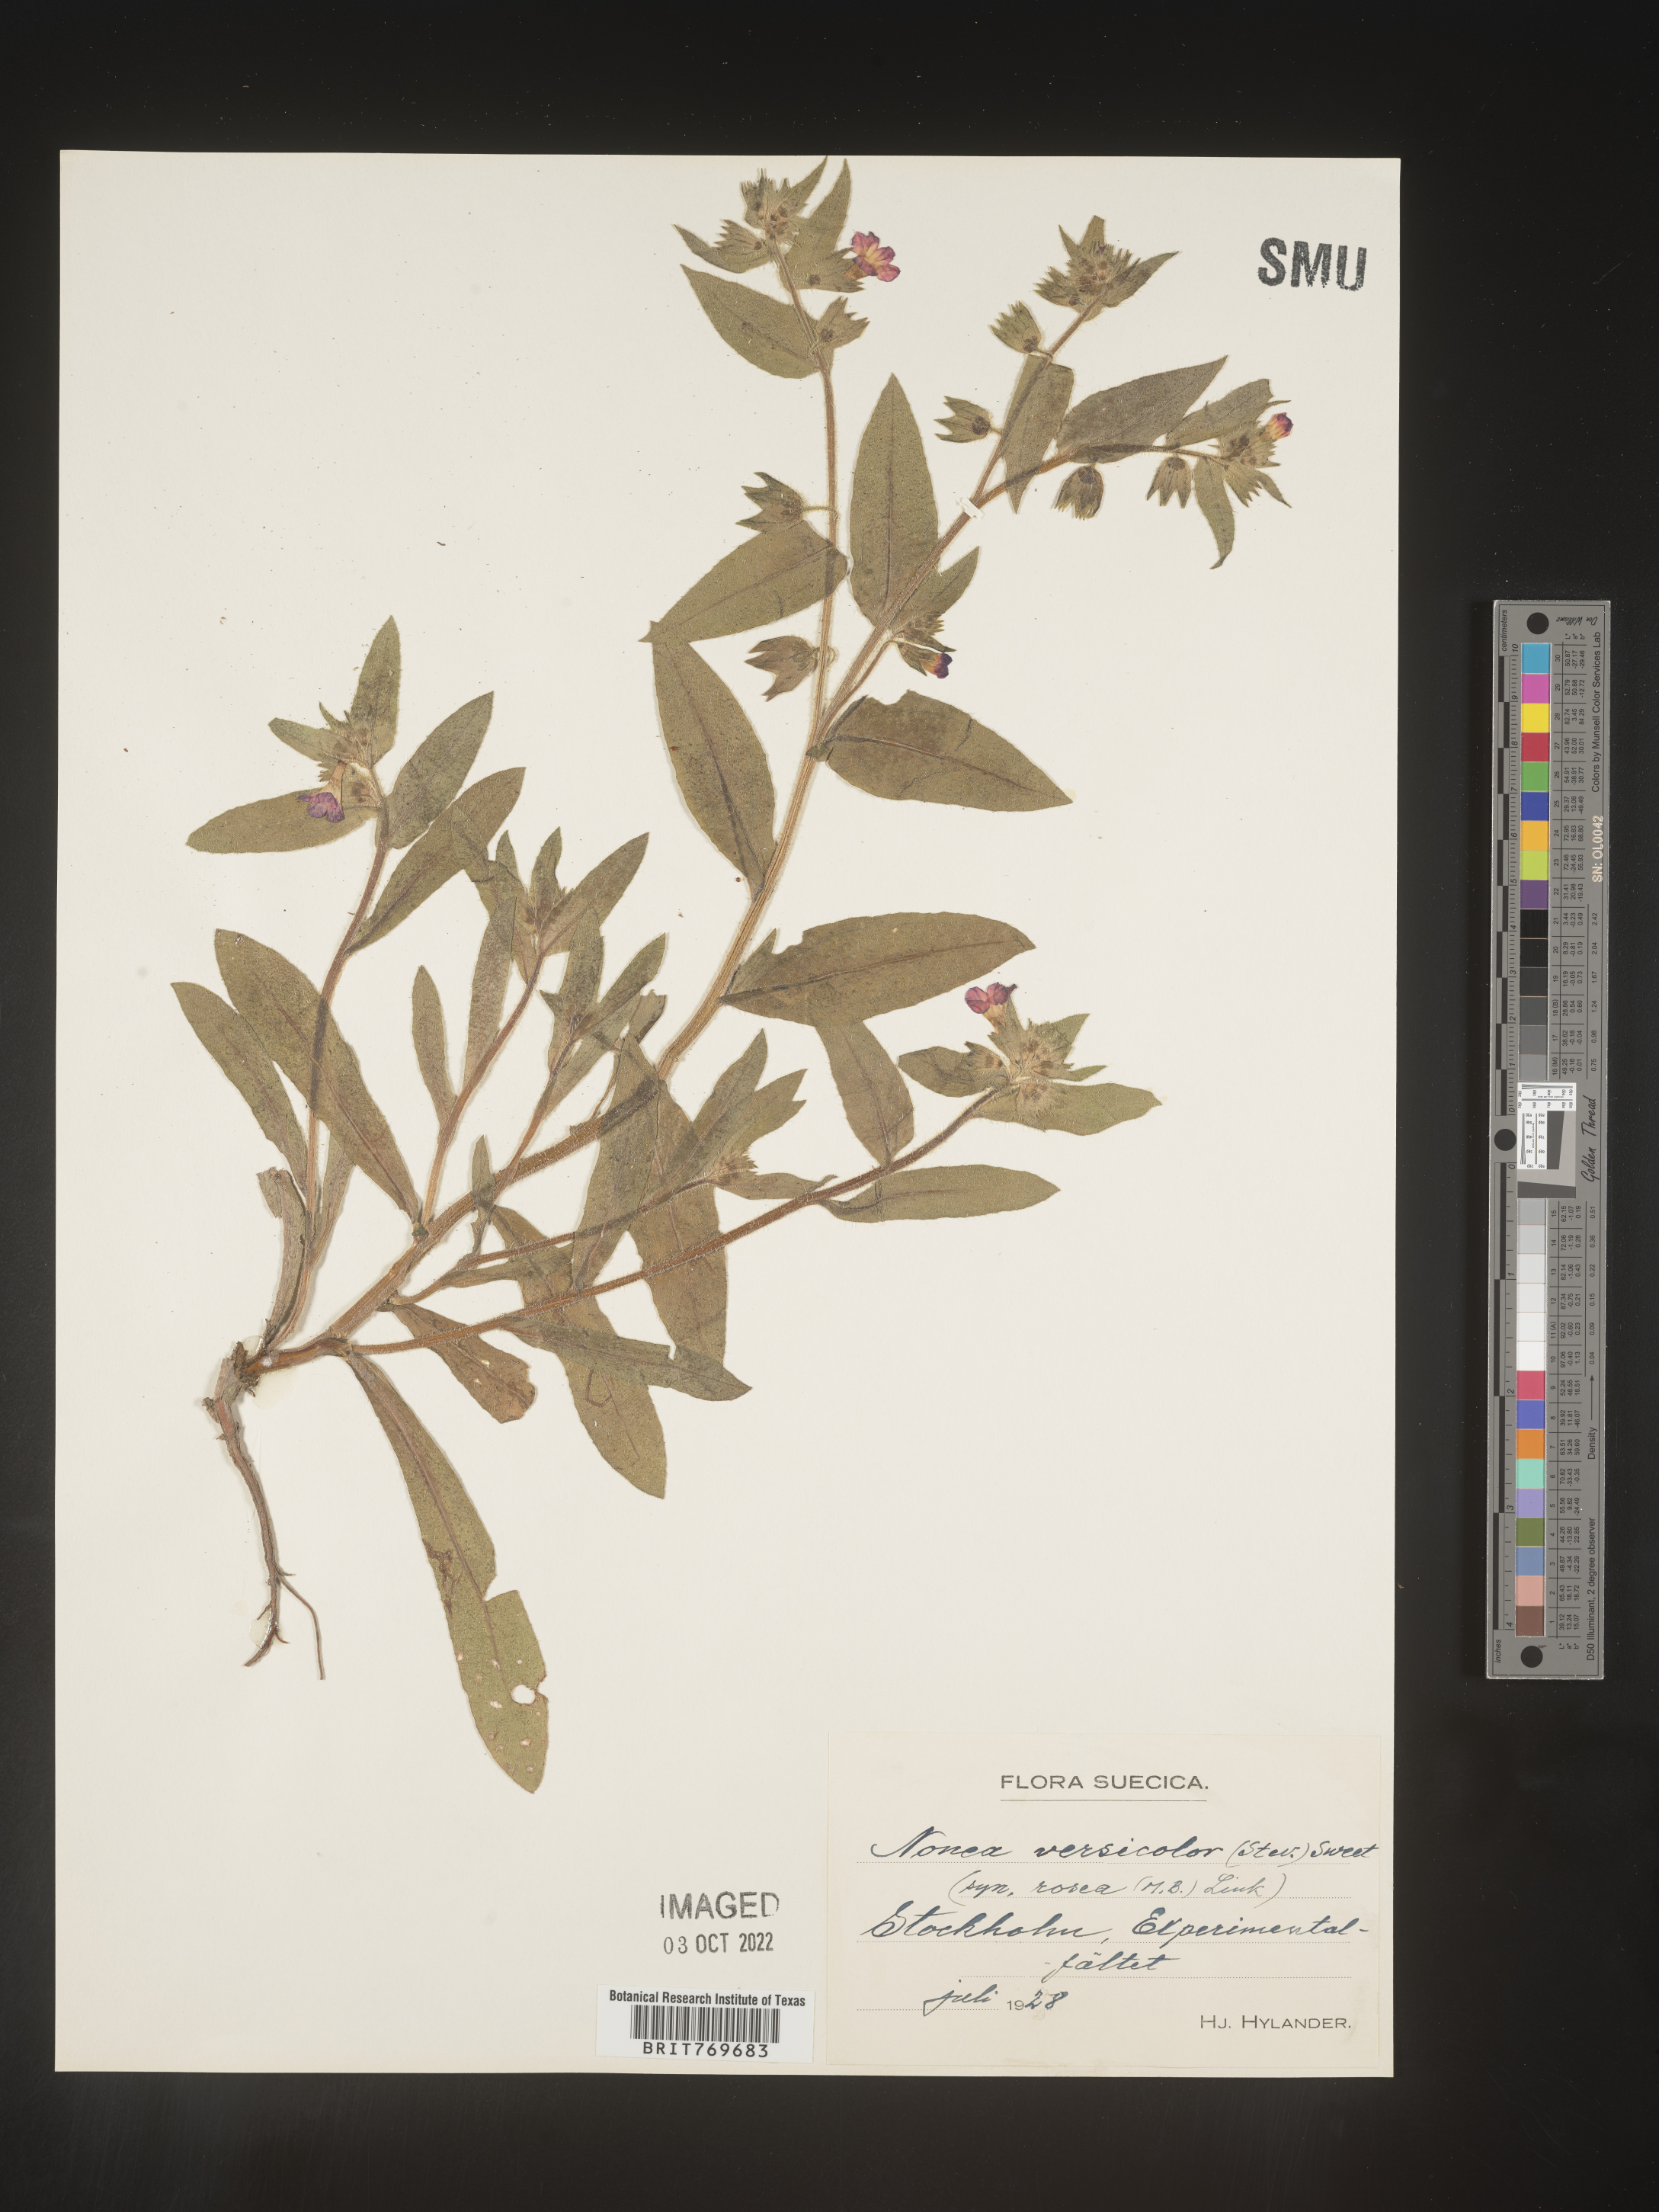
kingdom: Plantae
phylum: Tracheophyta
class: Magnoliopsida
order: Boraginales
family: Boraginaceae
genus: Nonea
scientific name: Nonea lutea
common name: Yellow nonea
